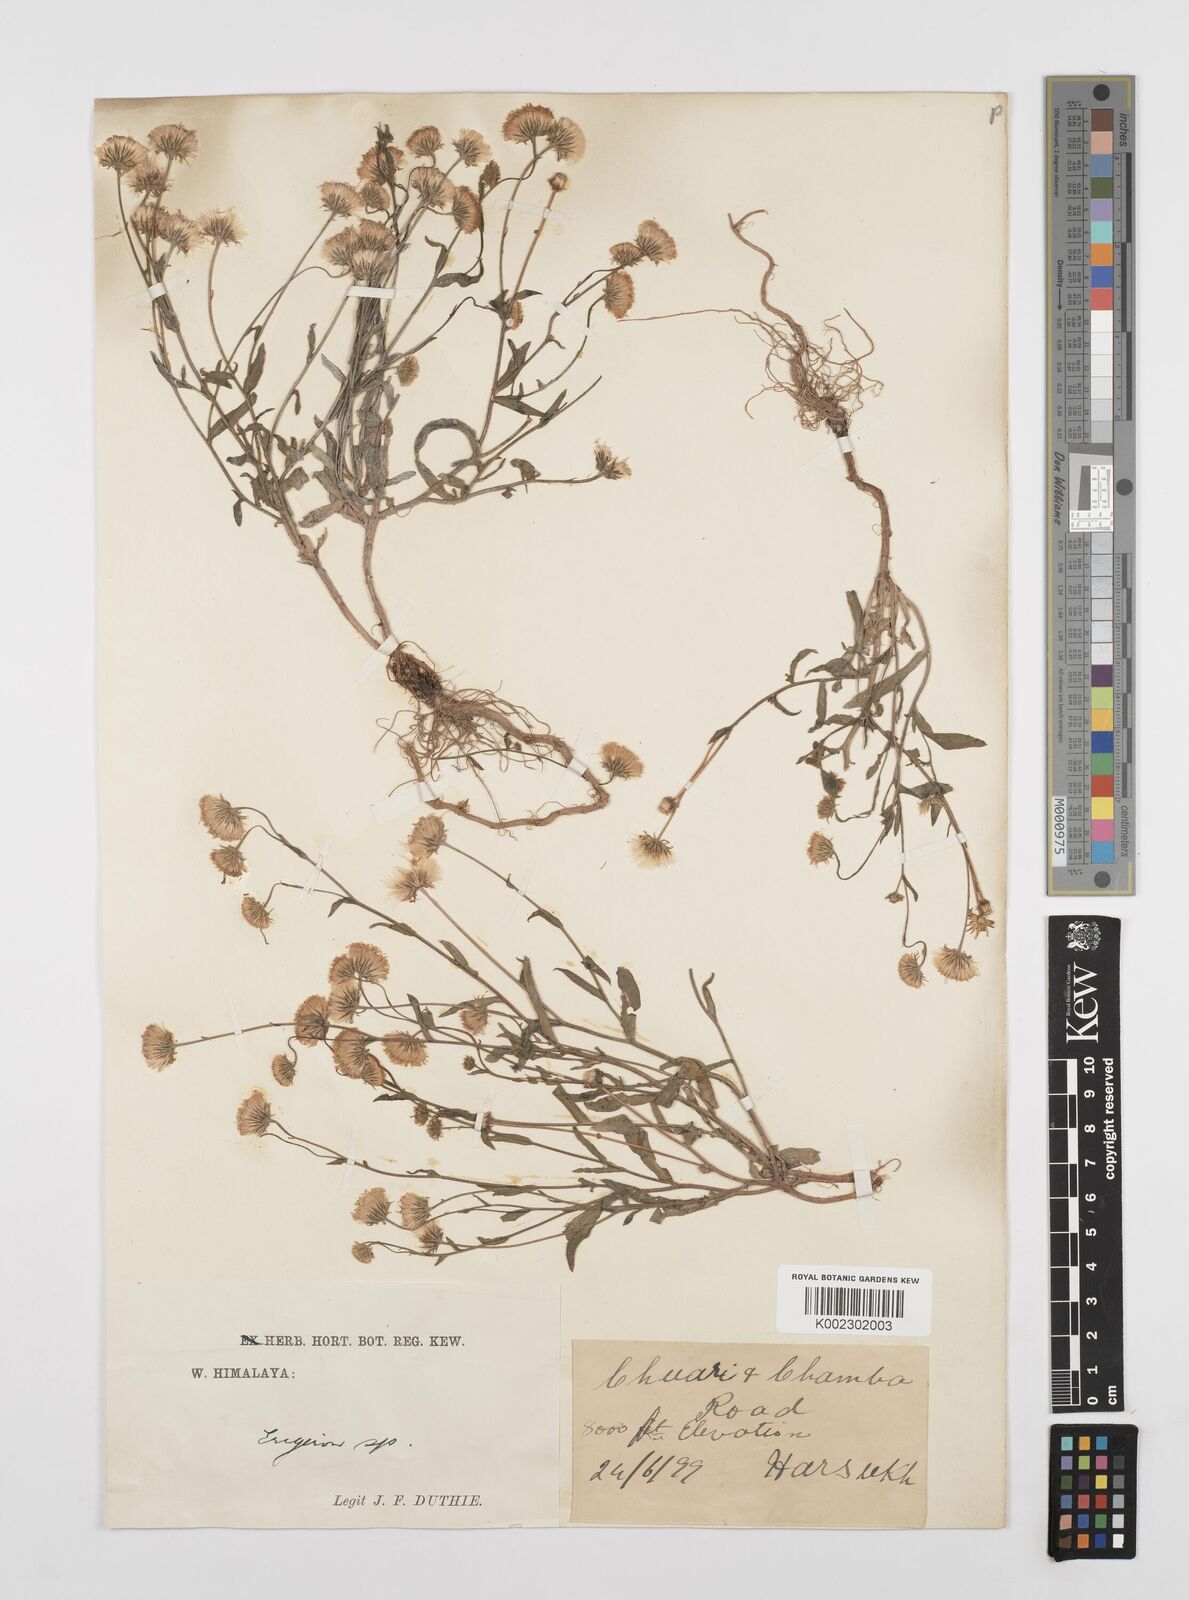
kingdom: Plantae
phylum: Tracheophyta
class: Magnoliopsida
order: Asterales
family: Asteraceae
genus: Erigeron
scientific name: Erigeron alpinus
